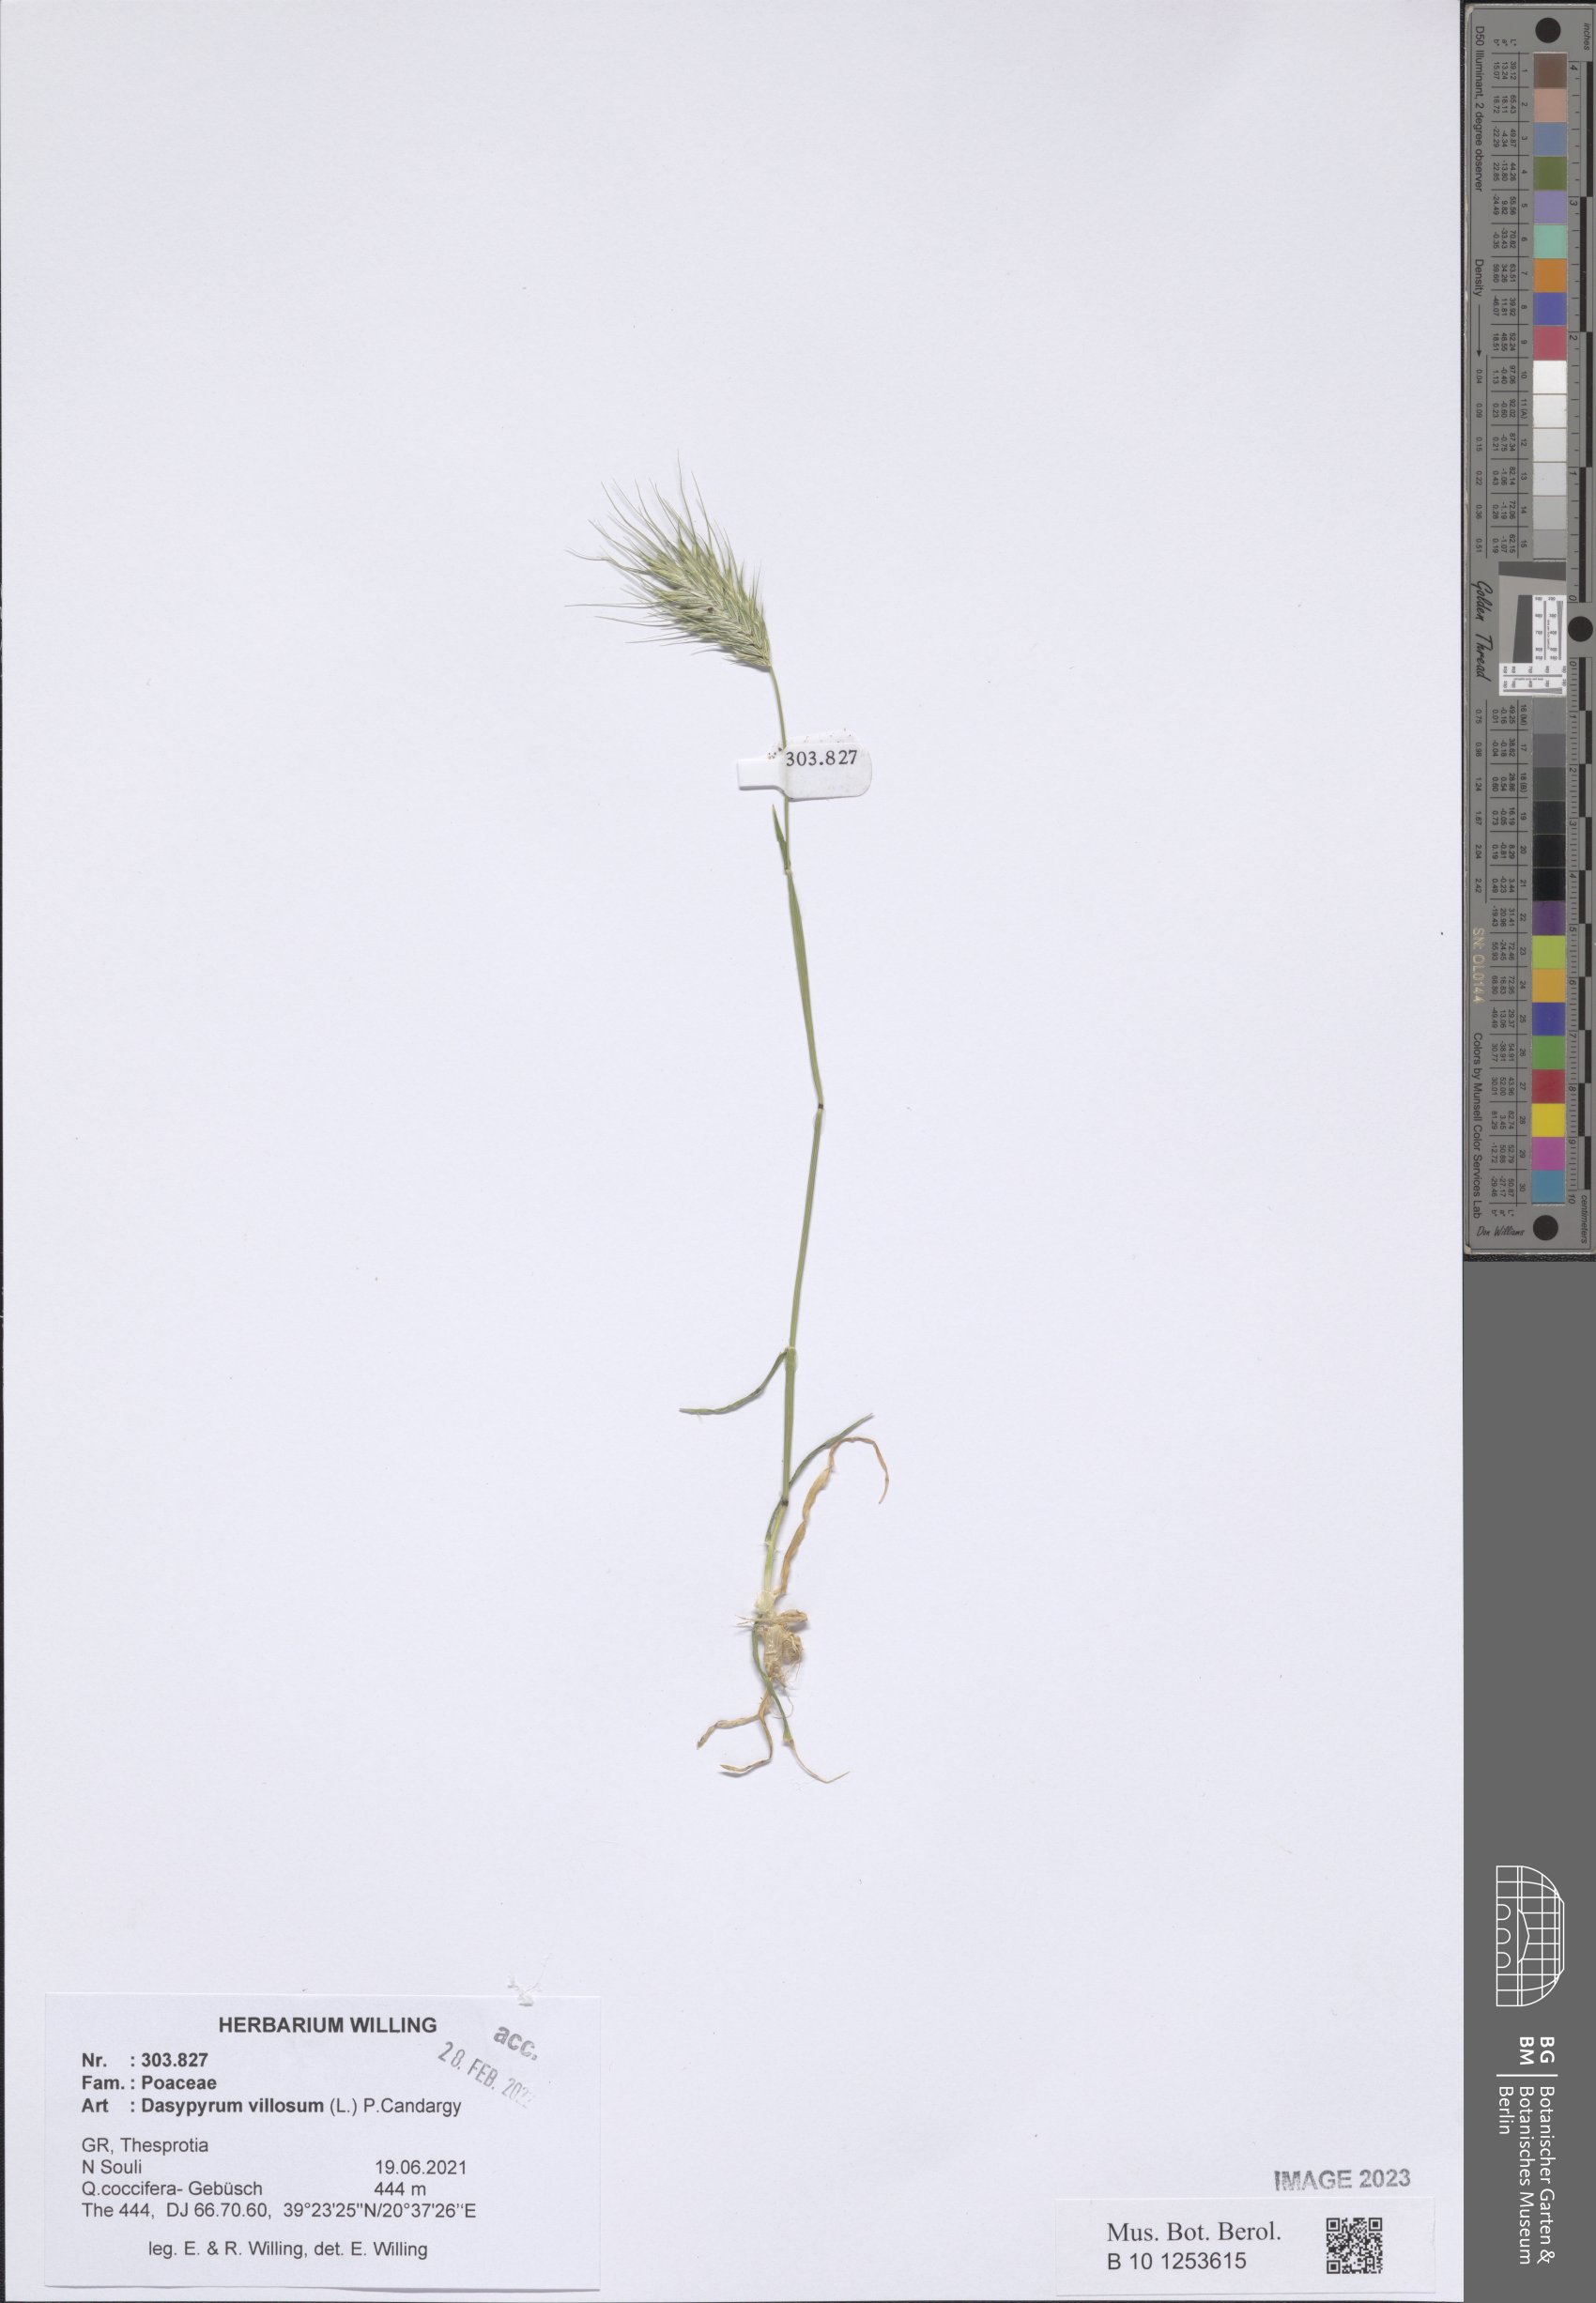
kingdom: Plantae
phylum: Tracheophyta
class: Liliopsida
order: Poales
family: Poaceae
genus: Dasypyrum
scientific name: Dasypyrum villosum
